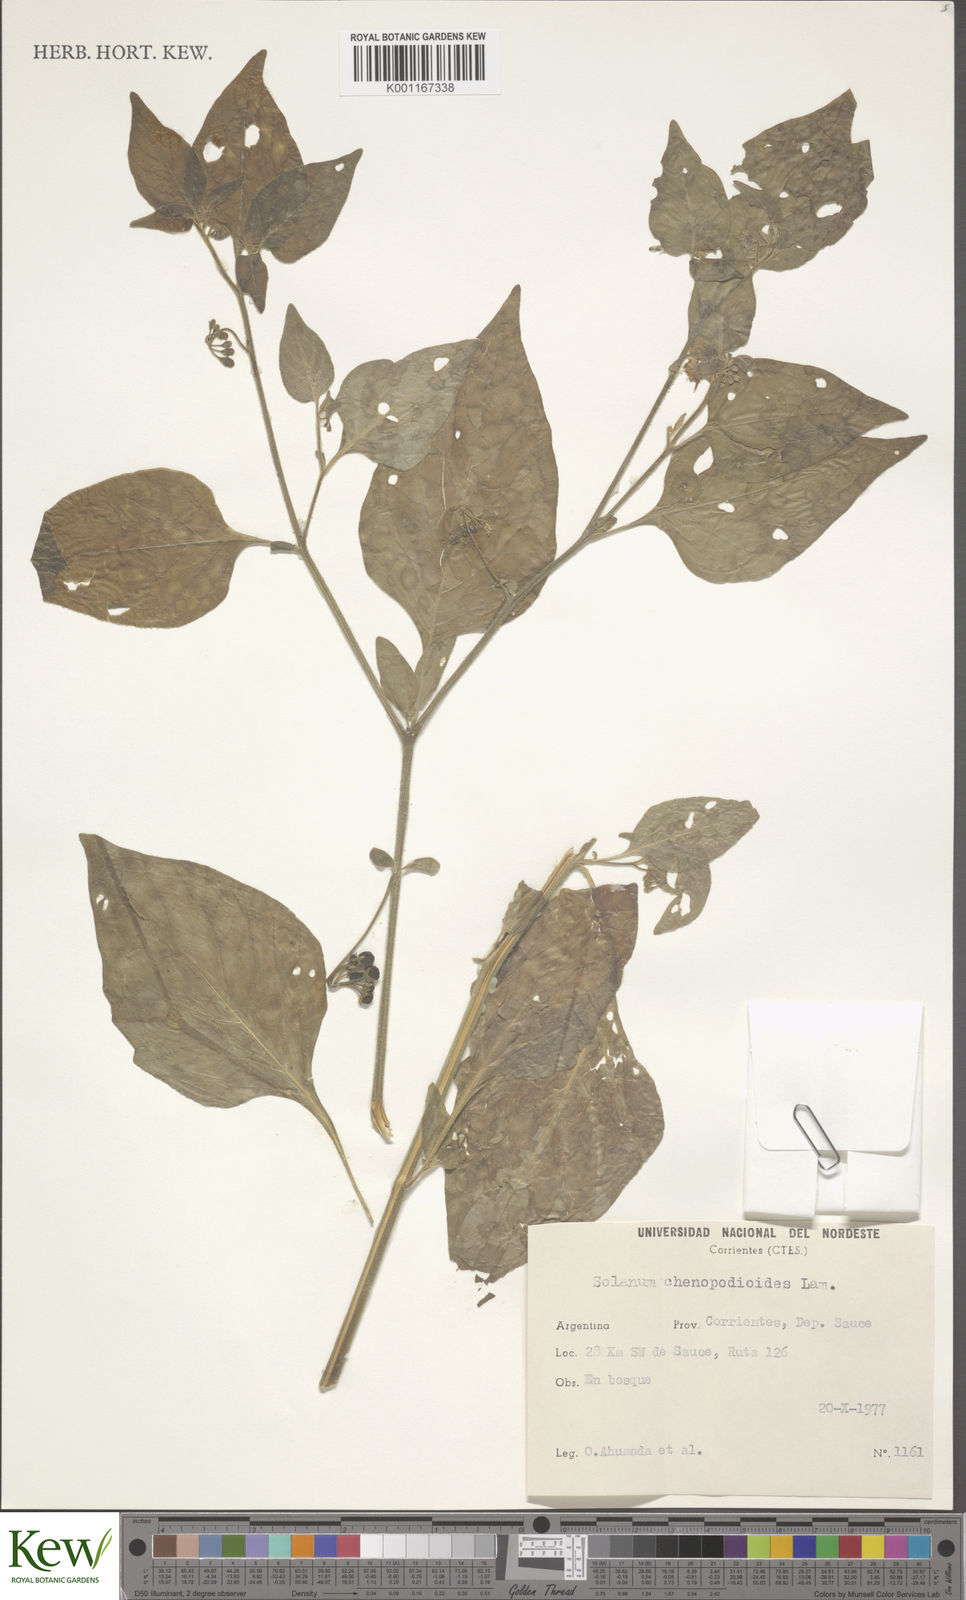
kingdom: Plantae
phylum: Tracheophyta
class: Magnoliopsida
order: Solanales
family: Solanaceae
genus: Solanum
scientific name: Solanum paucidens
